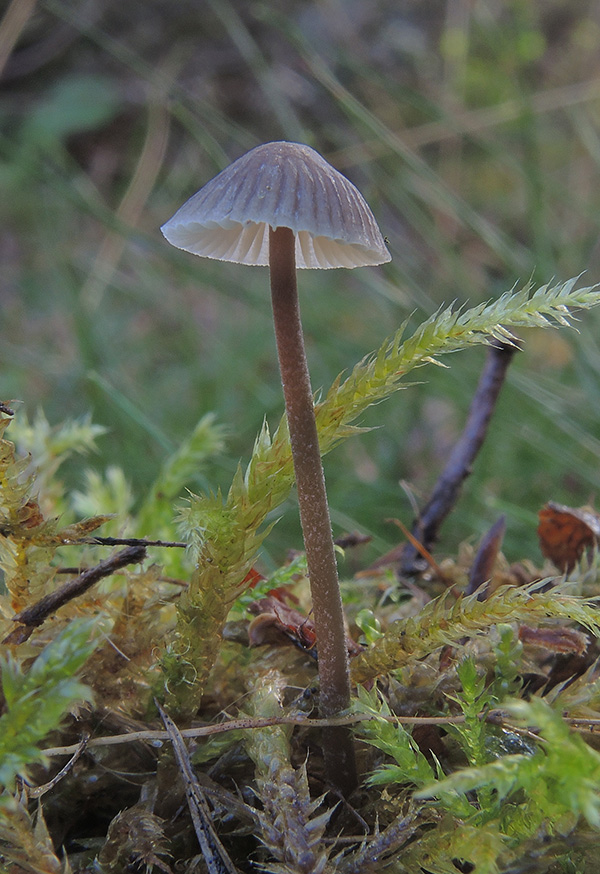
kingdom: Fungi
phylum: Basidiomycota
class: Agaricomycetes
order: Agaricales
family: Mycenaceae
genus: Mycena
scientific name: Mycena cretata
